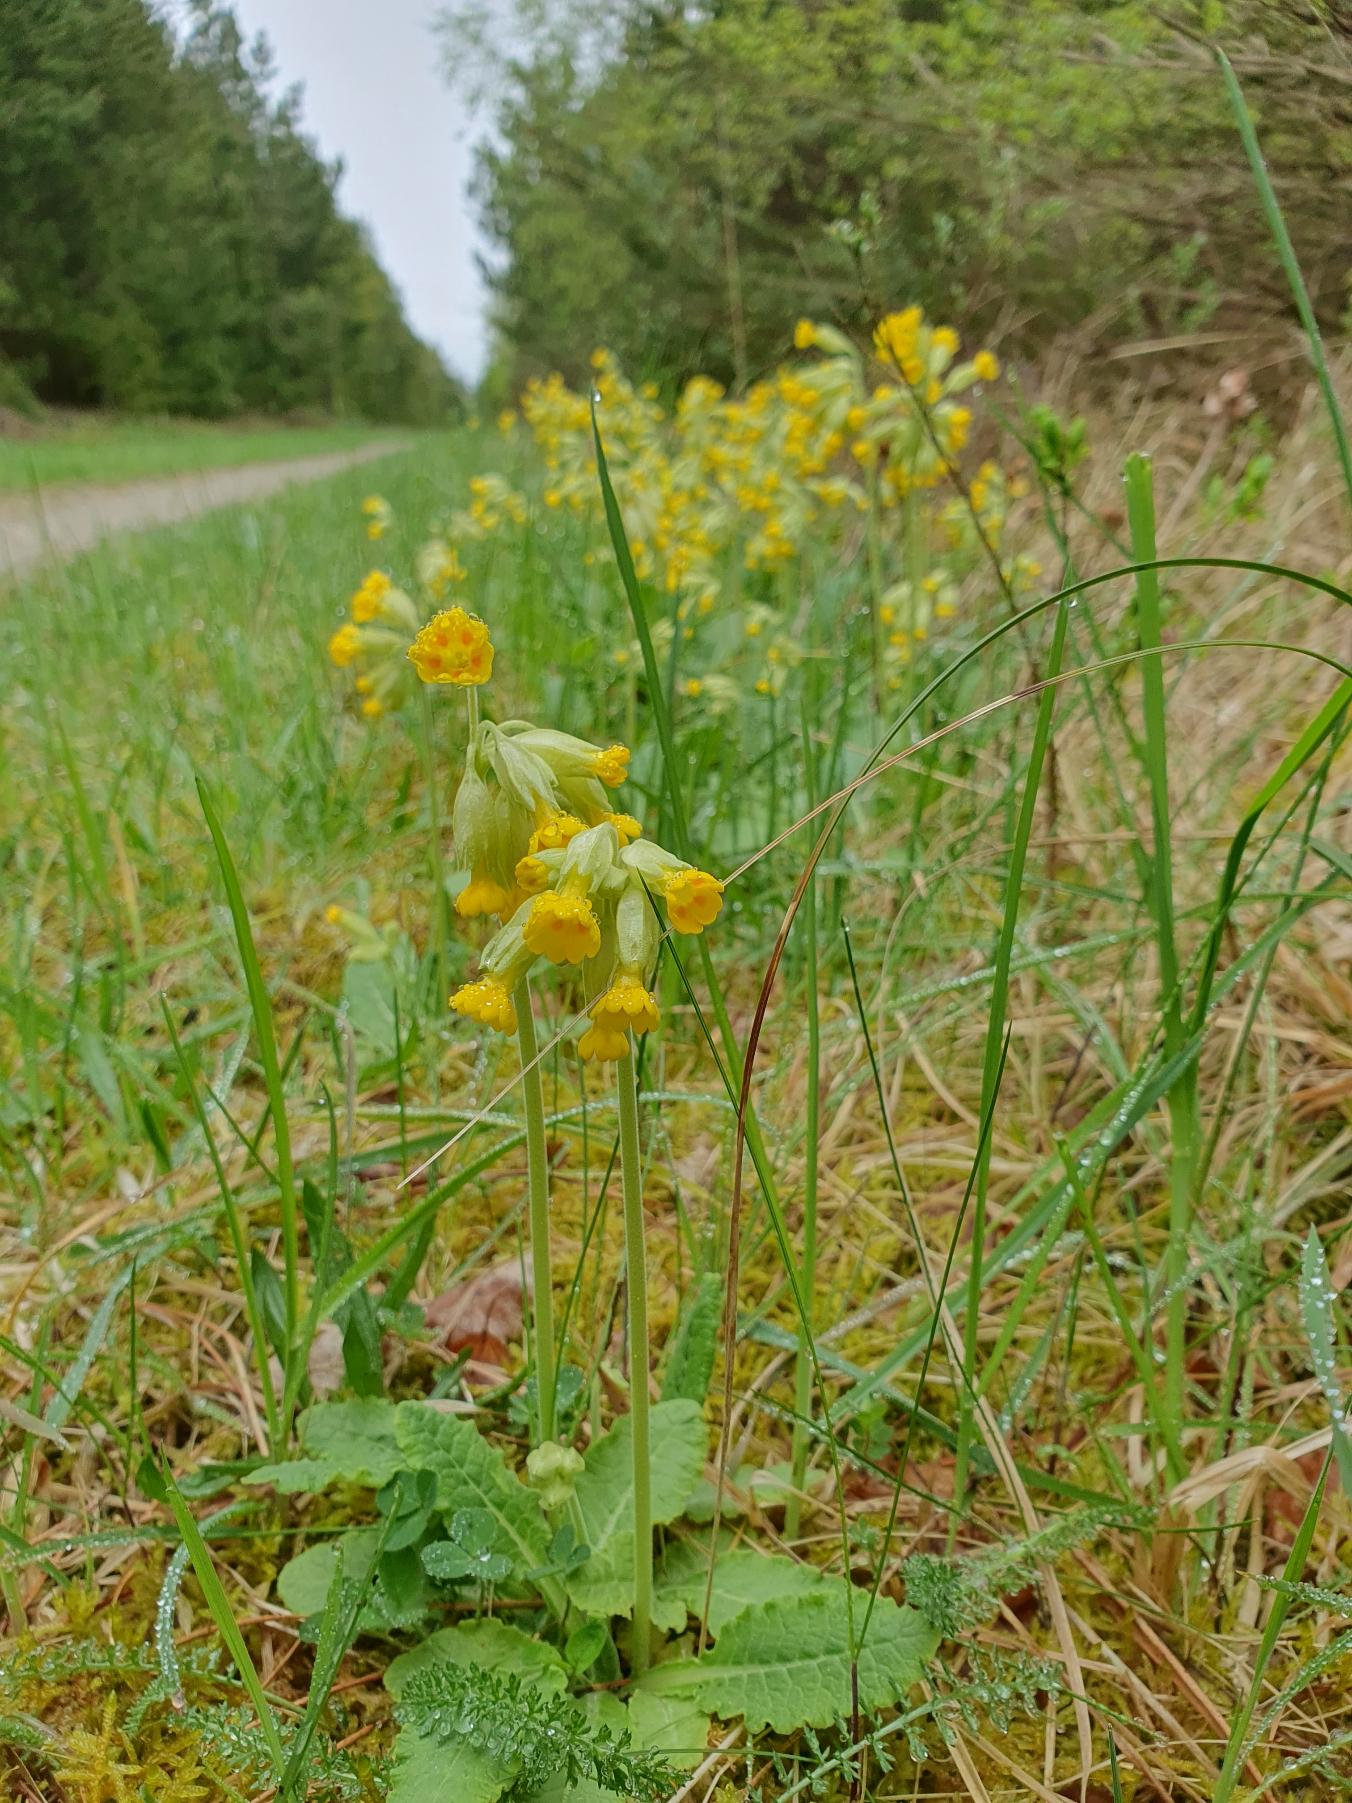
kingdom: Plantae
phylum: Tracheophyta
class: Magnoliopsida
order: Ericales
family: Primulaceae
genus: Primula
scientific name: Primula veris
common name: Hulkravet kodriver
